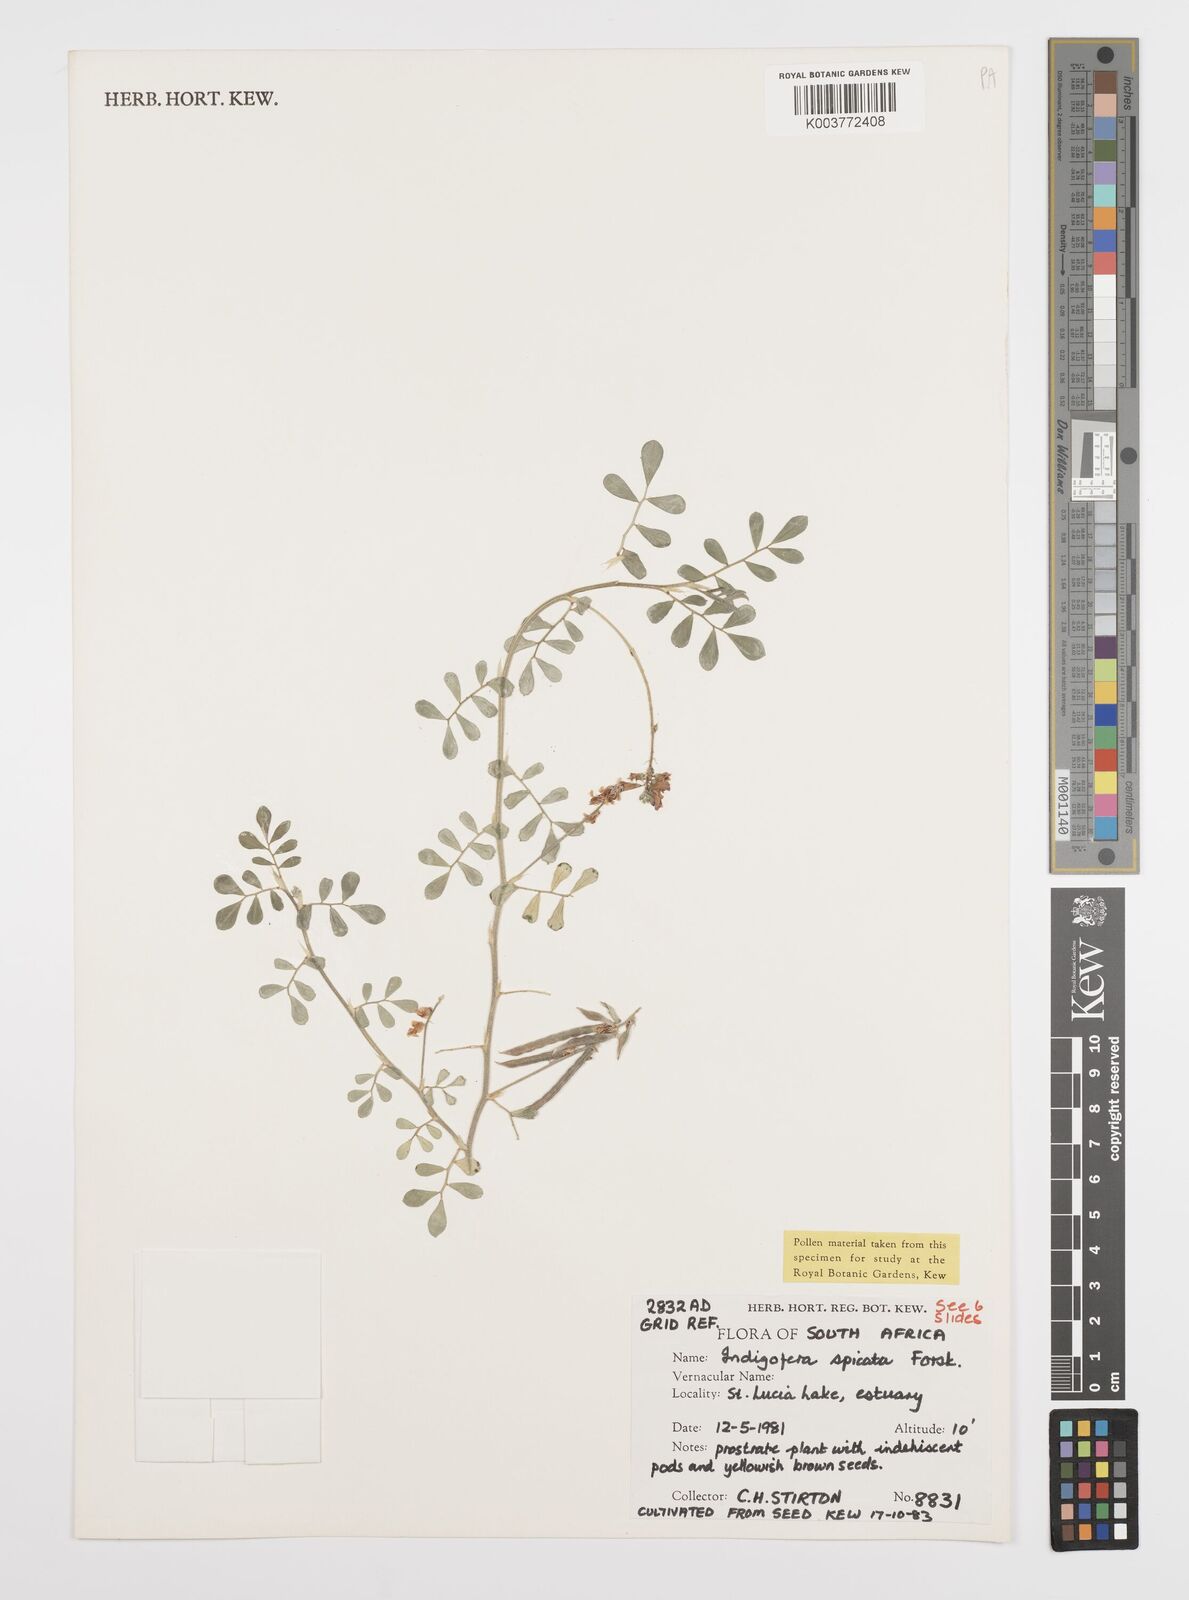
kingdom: Plantae
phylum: Tracheophyta
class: Magnoliopsida
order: Fabales
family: Fabaceae
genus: Indigofera
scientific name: Indigofera spicata
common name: Creeping indigo
